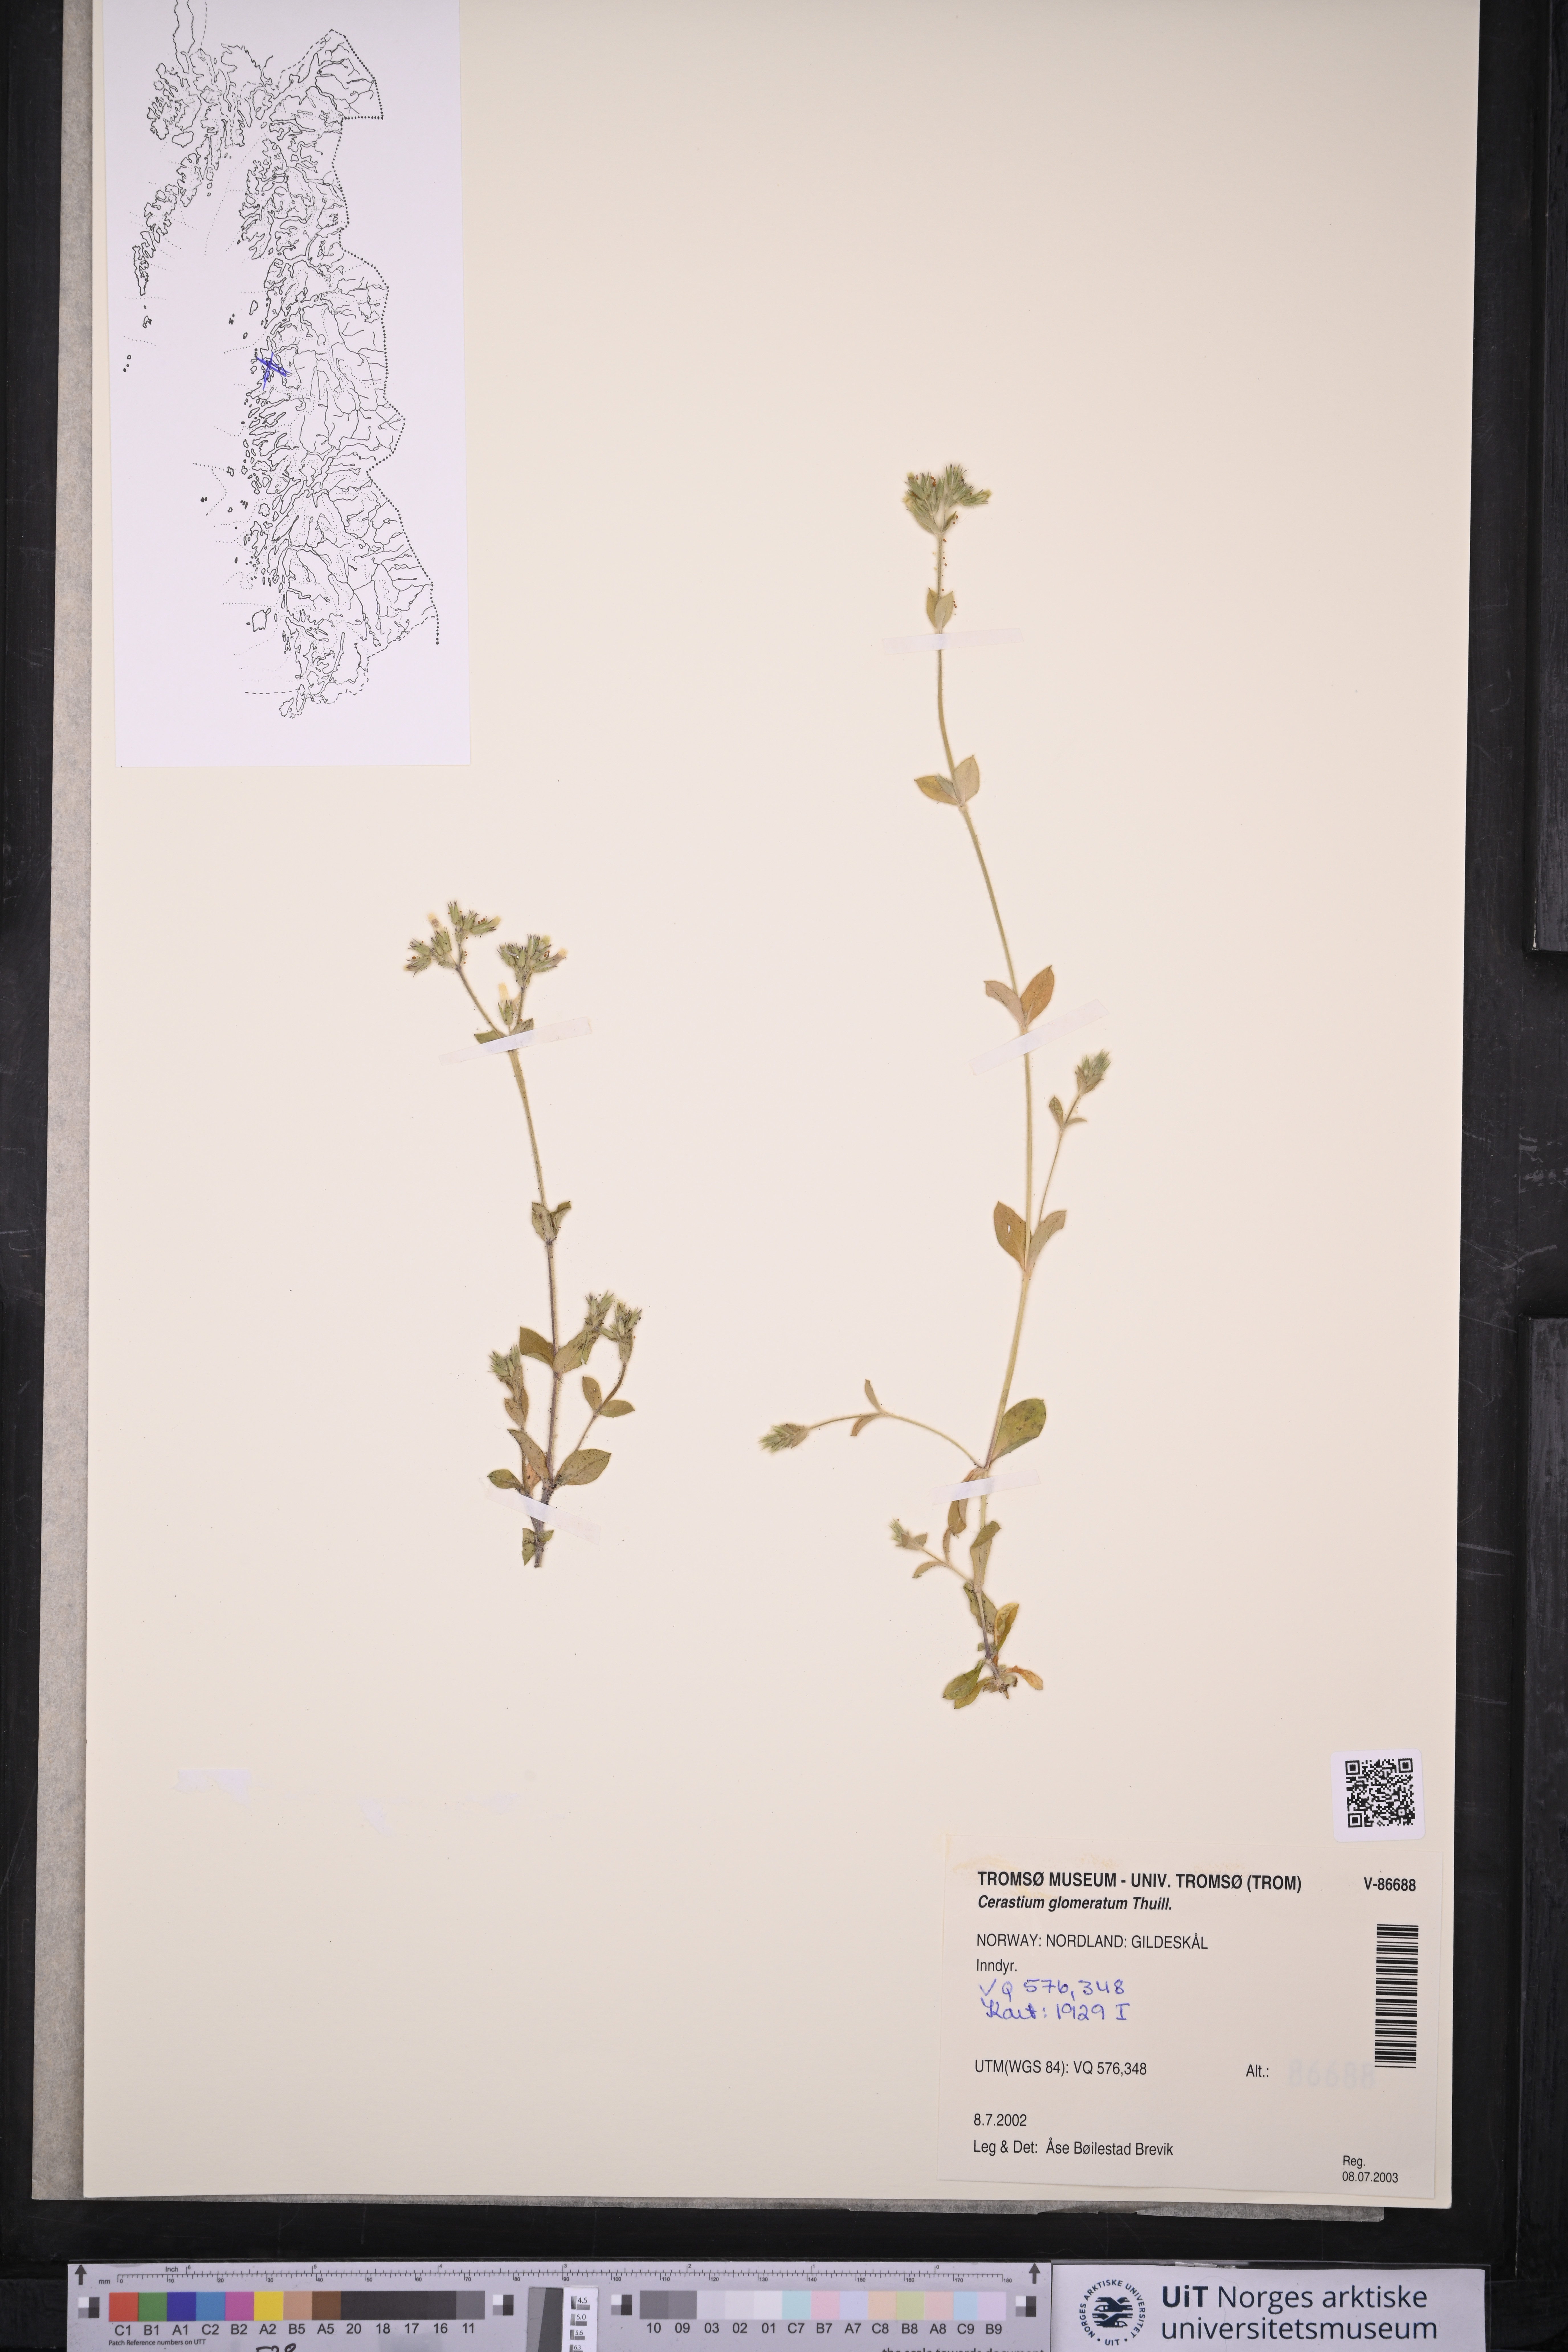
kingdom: Plantae
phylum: Tracheophyta
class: Magnoliopsida
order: Caryophyllales
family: Caryophyllaceae
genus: Cerastium
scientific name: Cerastium glomeratum
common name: Sticky chickweed
